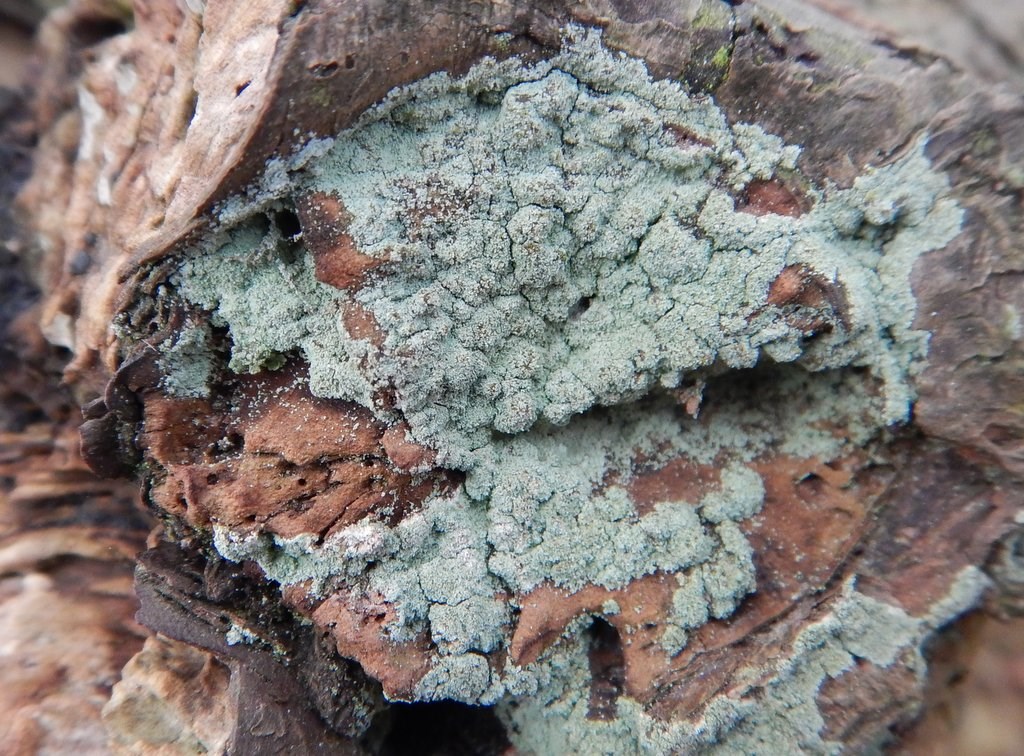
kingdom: Fungi
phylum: Ascomycota
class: Lecanoromycetes
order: Lecanorales
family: Stereocaulaceae
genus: Lepraria
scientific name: Lepraria incana
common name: almindelig støvlav
